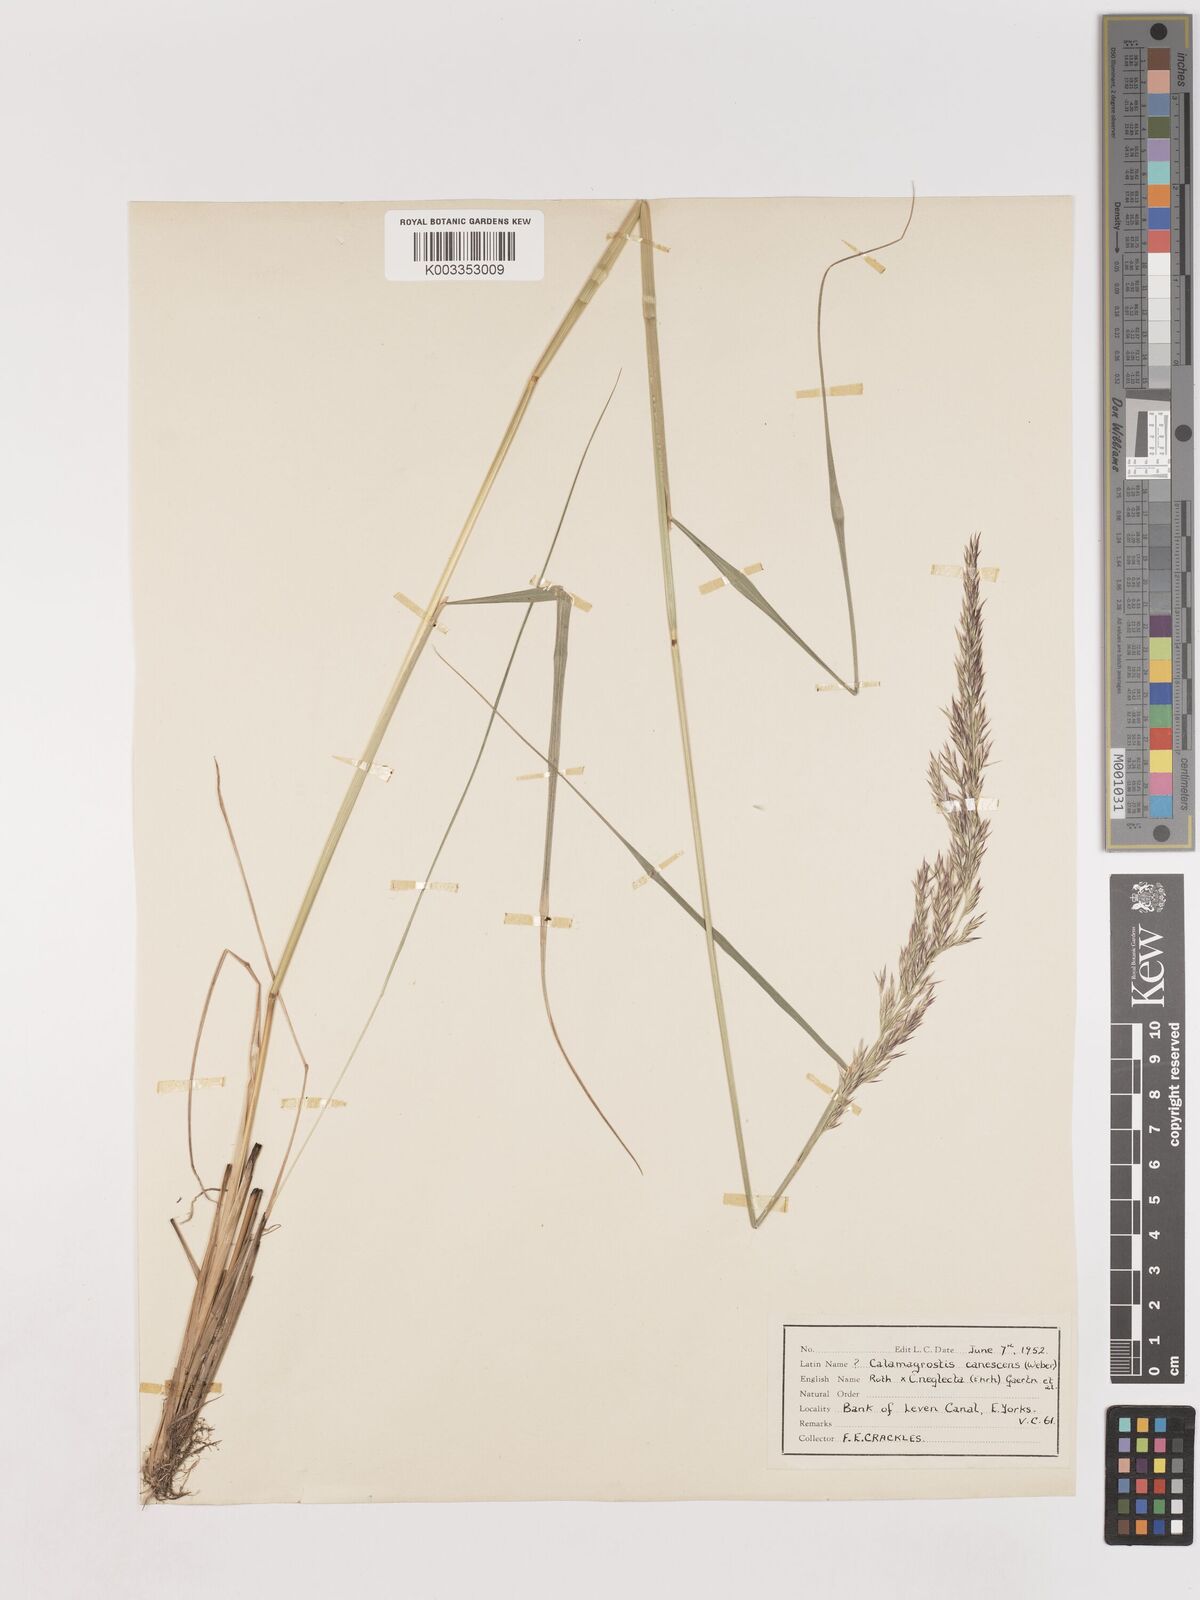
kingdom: Plantae
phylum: Tracheophyta
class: Liliopsida
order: Poales
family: Poaceae
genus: Calamagrostis
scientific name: Calamagrostis canescens
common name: Purple small-reed
